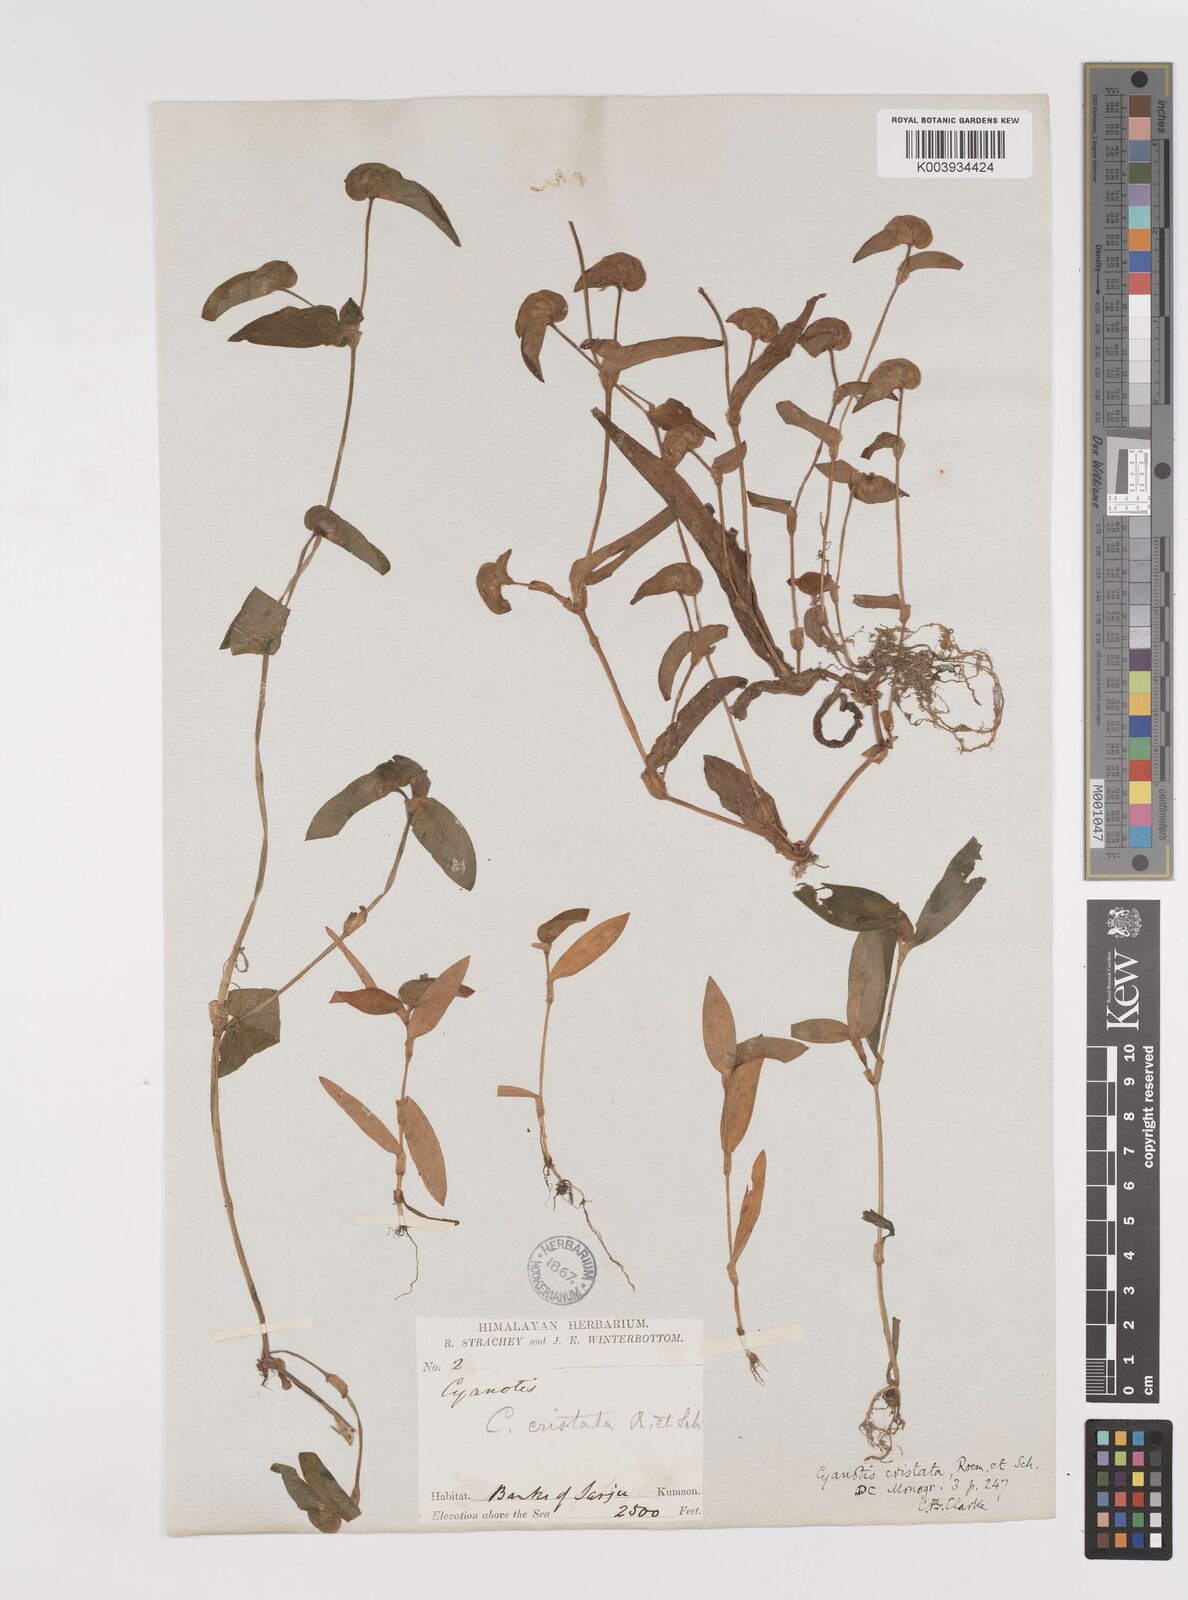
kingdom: Plantae
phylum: Tracheophyta
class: Liliopsida
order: Commelinales
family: Commelinaceae
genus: Cyanotis
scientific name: Cyanotis cristata
